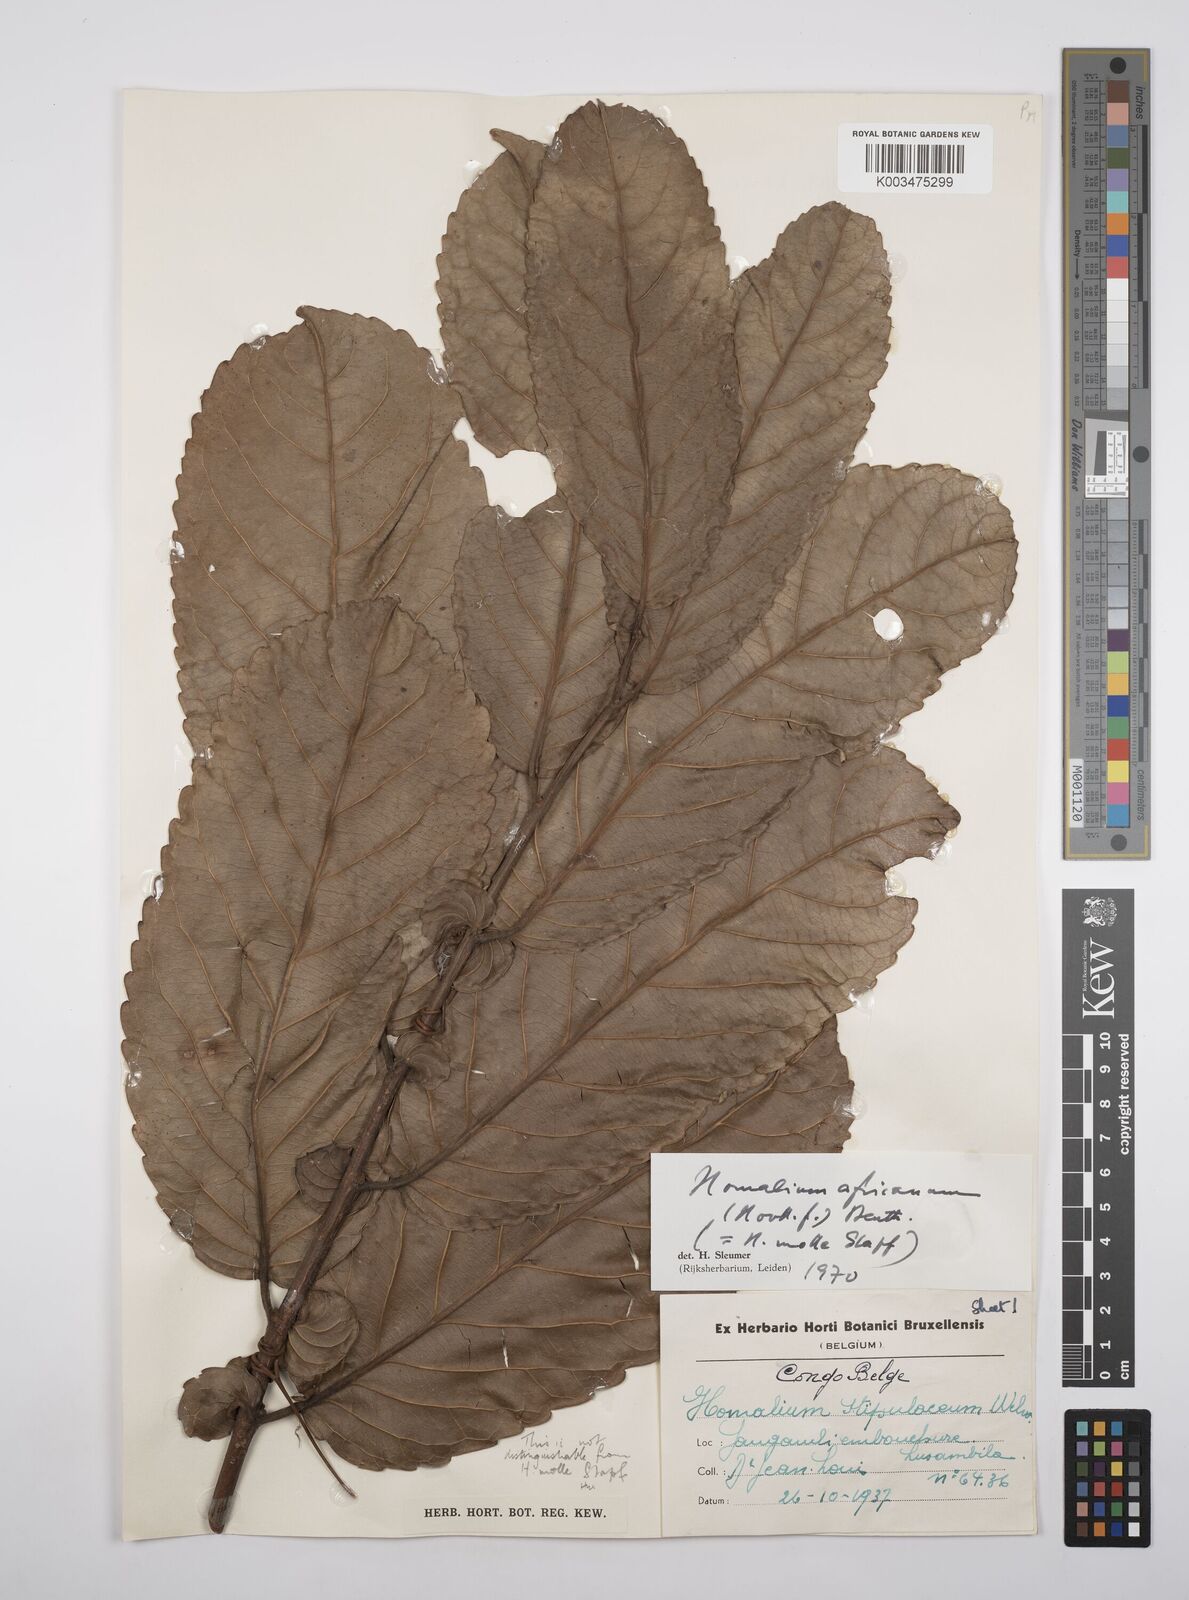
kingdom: Plantae
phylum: Tracheophyta
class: Magnoliopsida
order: Malpighiales
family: Salicaceae
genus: Homalium
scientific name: Homalium africanum
